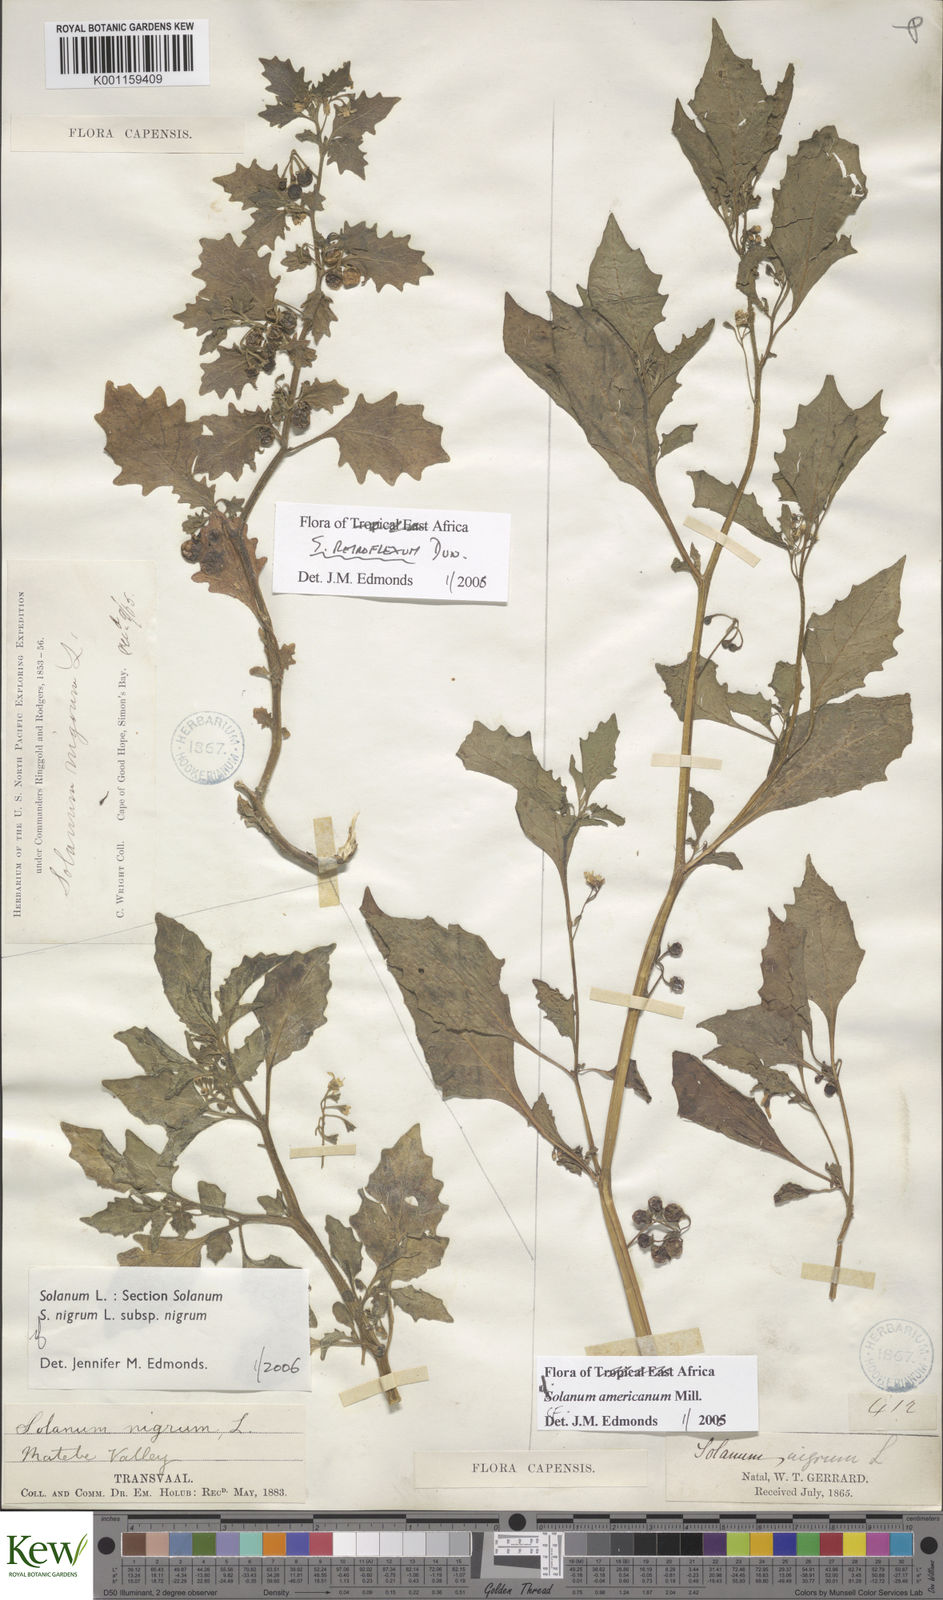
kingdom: Plantae
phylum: Tracheophyta
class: Magnoliopsida
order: Solanales
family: Solanaceae
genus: Solanum
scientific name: Solanum retroflexum
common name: Wonderberry
